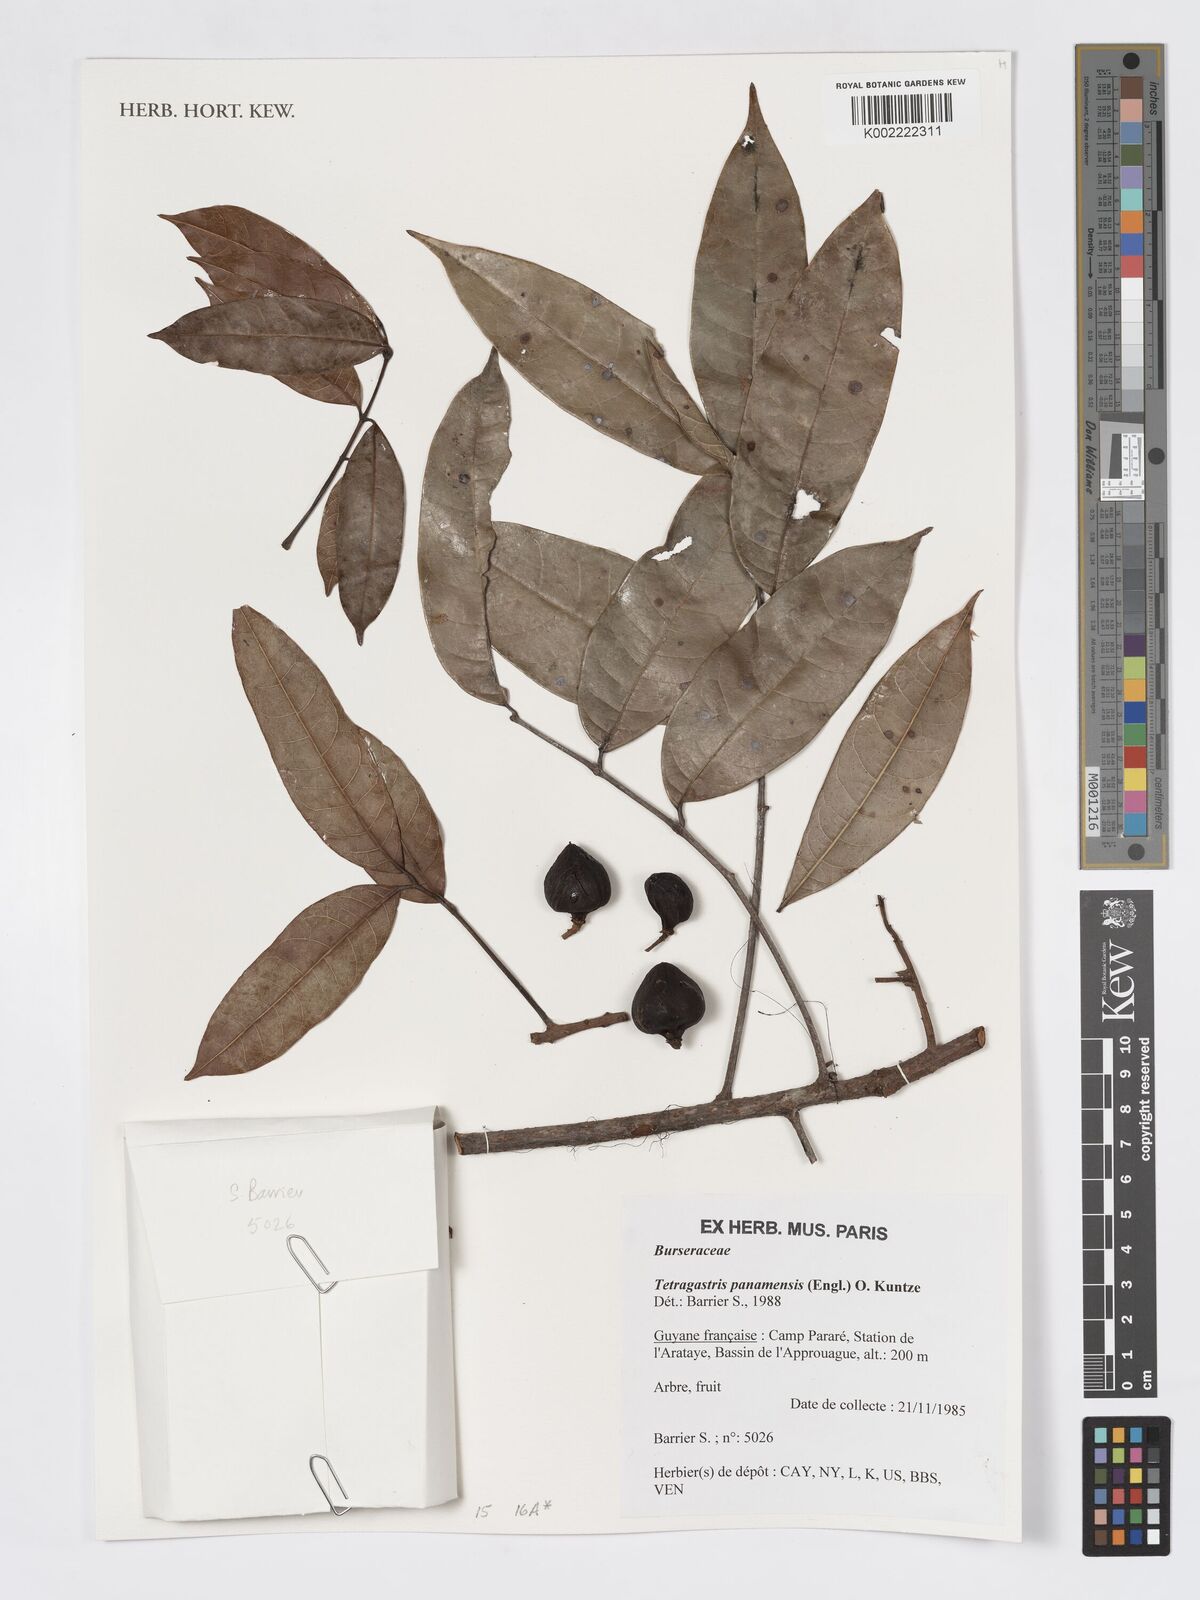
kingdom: Plantae
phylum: Tracheophyta
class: Magnoliopsida
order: Sapindales
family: Burseraceae
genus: Tetragastris
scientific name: Tetragastris panamensis
